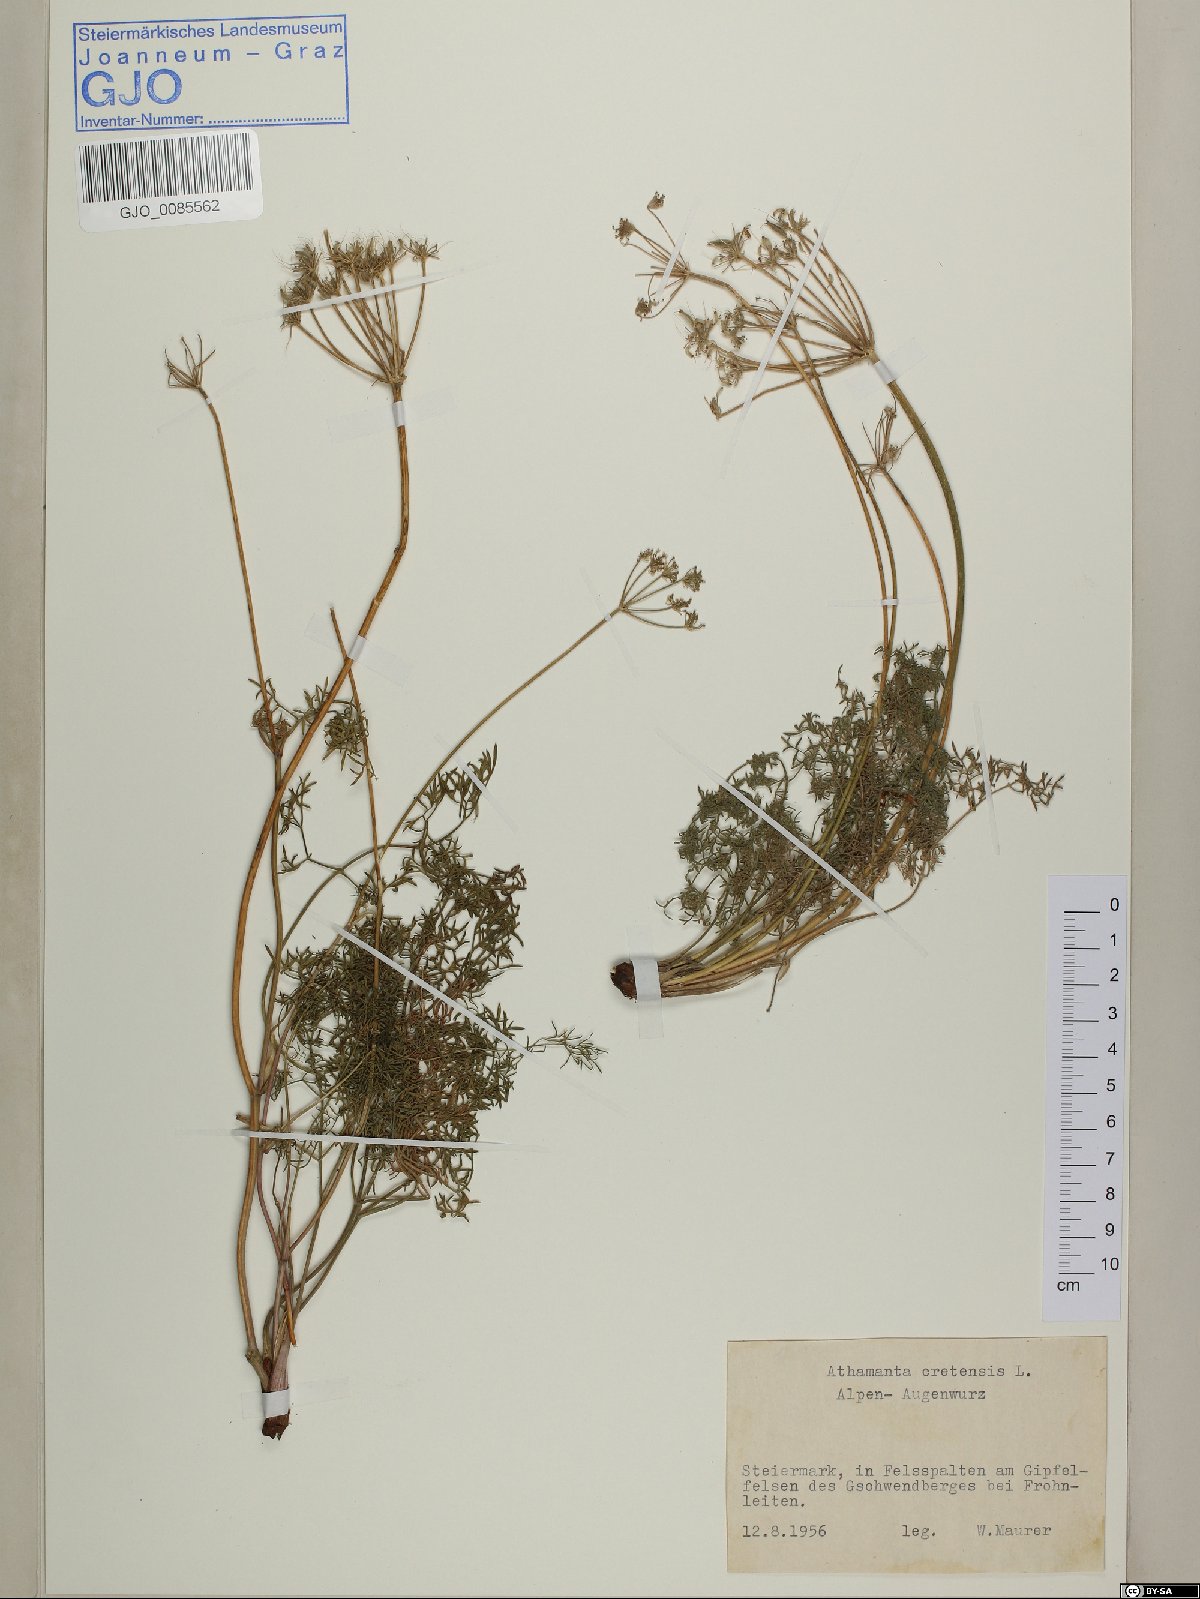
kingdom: Plantae
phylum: Tracheophyta
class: Magnoliopsida
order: Apiales
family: Apiaceae
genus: Athamanta
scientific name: Athamanta cretensis
